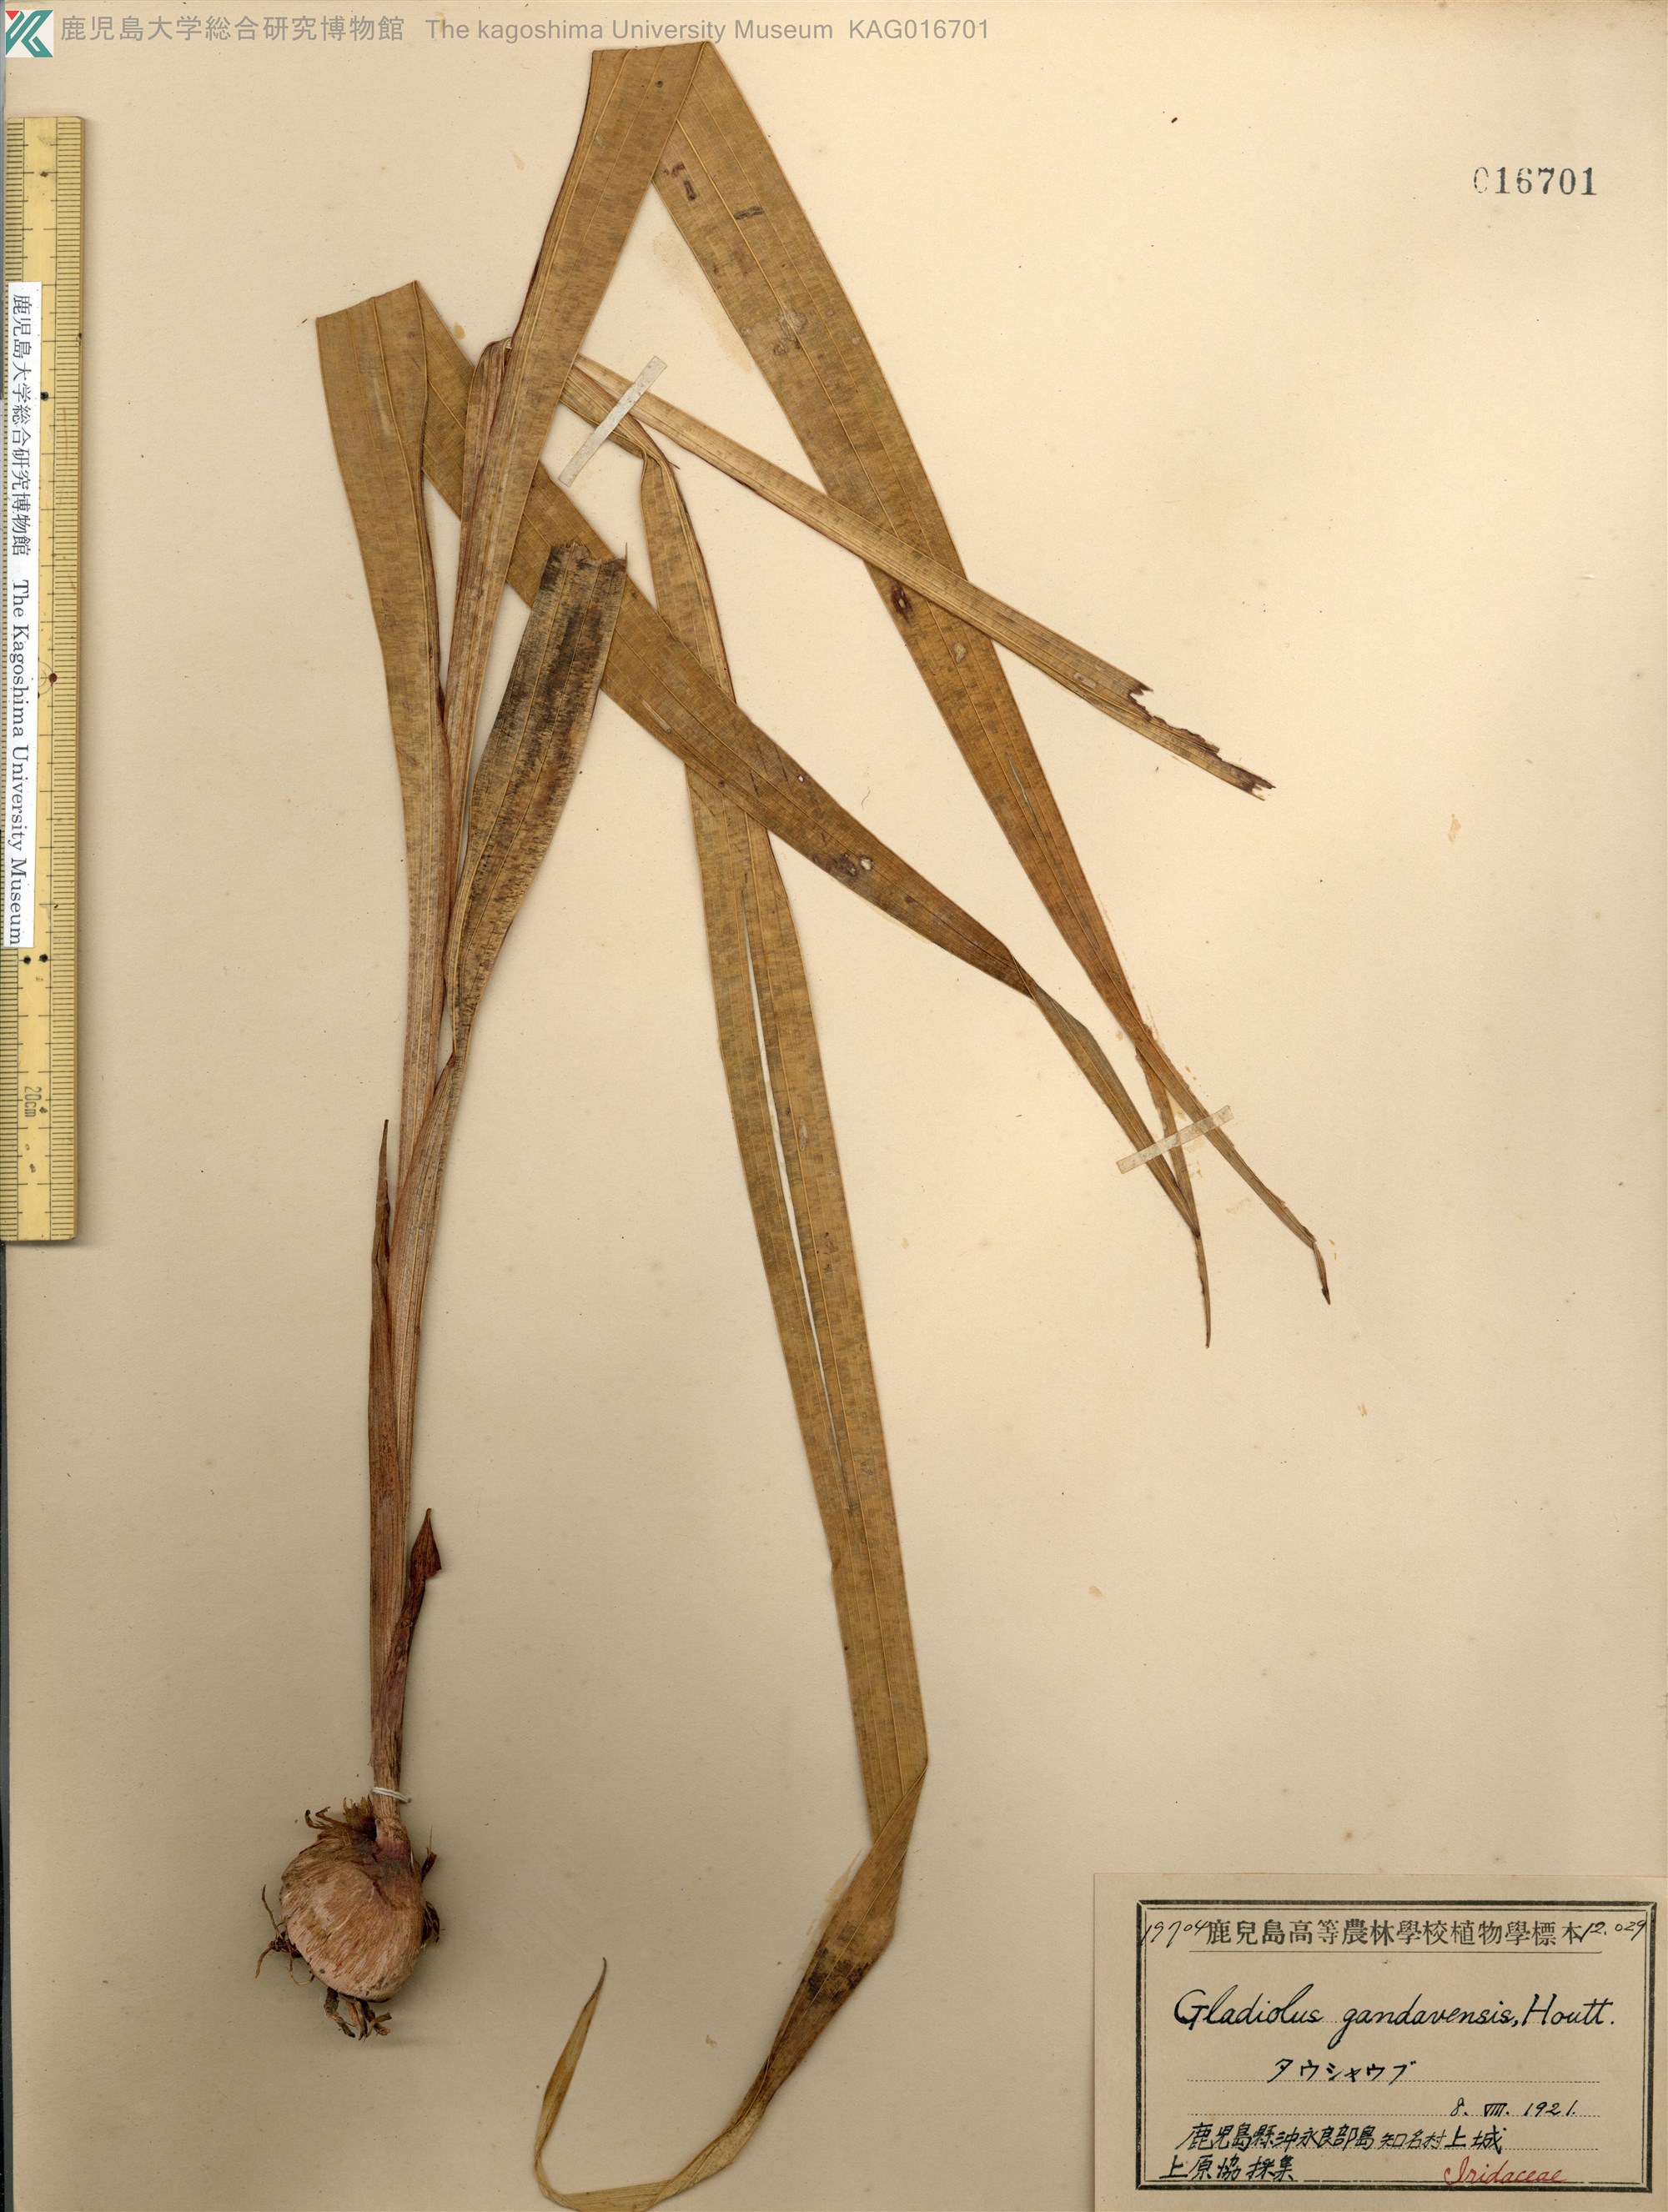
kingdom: Plantae
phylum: Tracheophyta
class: Liliopsida
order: Asparagales
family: Iridaceae
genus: Gladiolus
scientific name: Gladiolus colvillei
